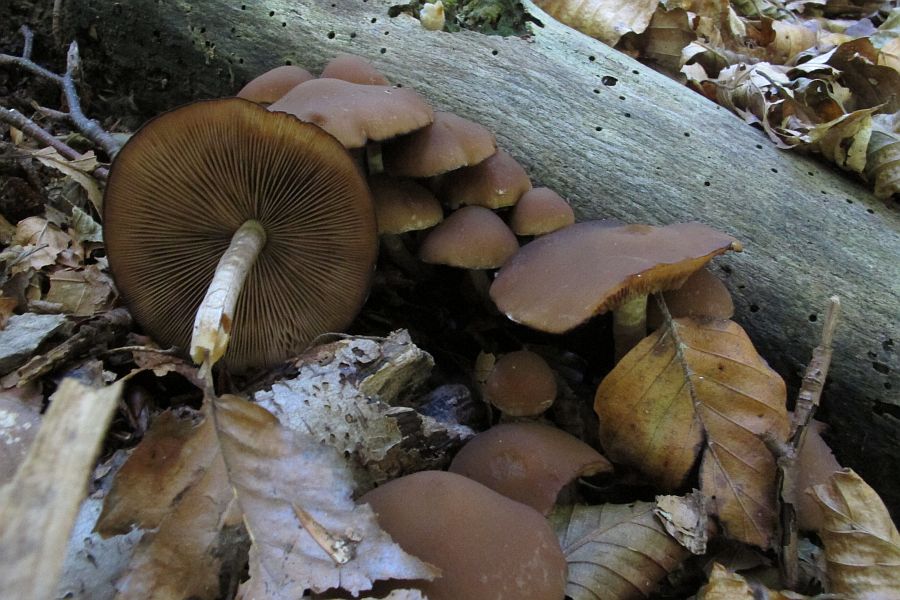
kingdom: Fungi
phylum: Basidiomycota
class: Agaricomycetes
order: Agaricales
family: Psathyrellaceae
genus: Psathyrella
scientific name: Psathyrella piluliformis
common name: lysstokket mørkhat
